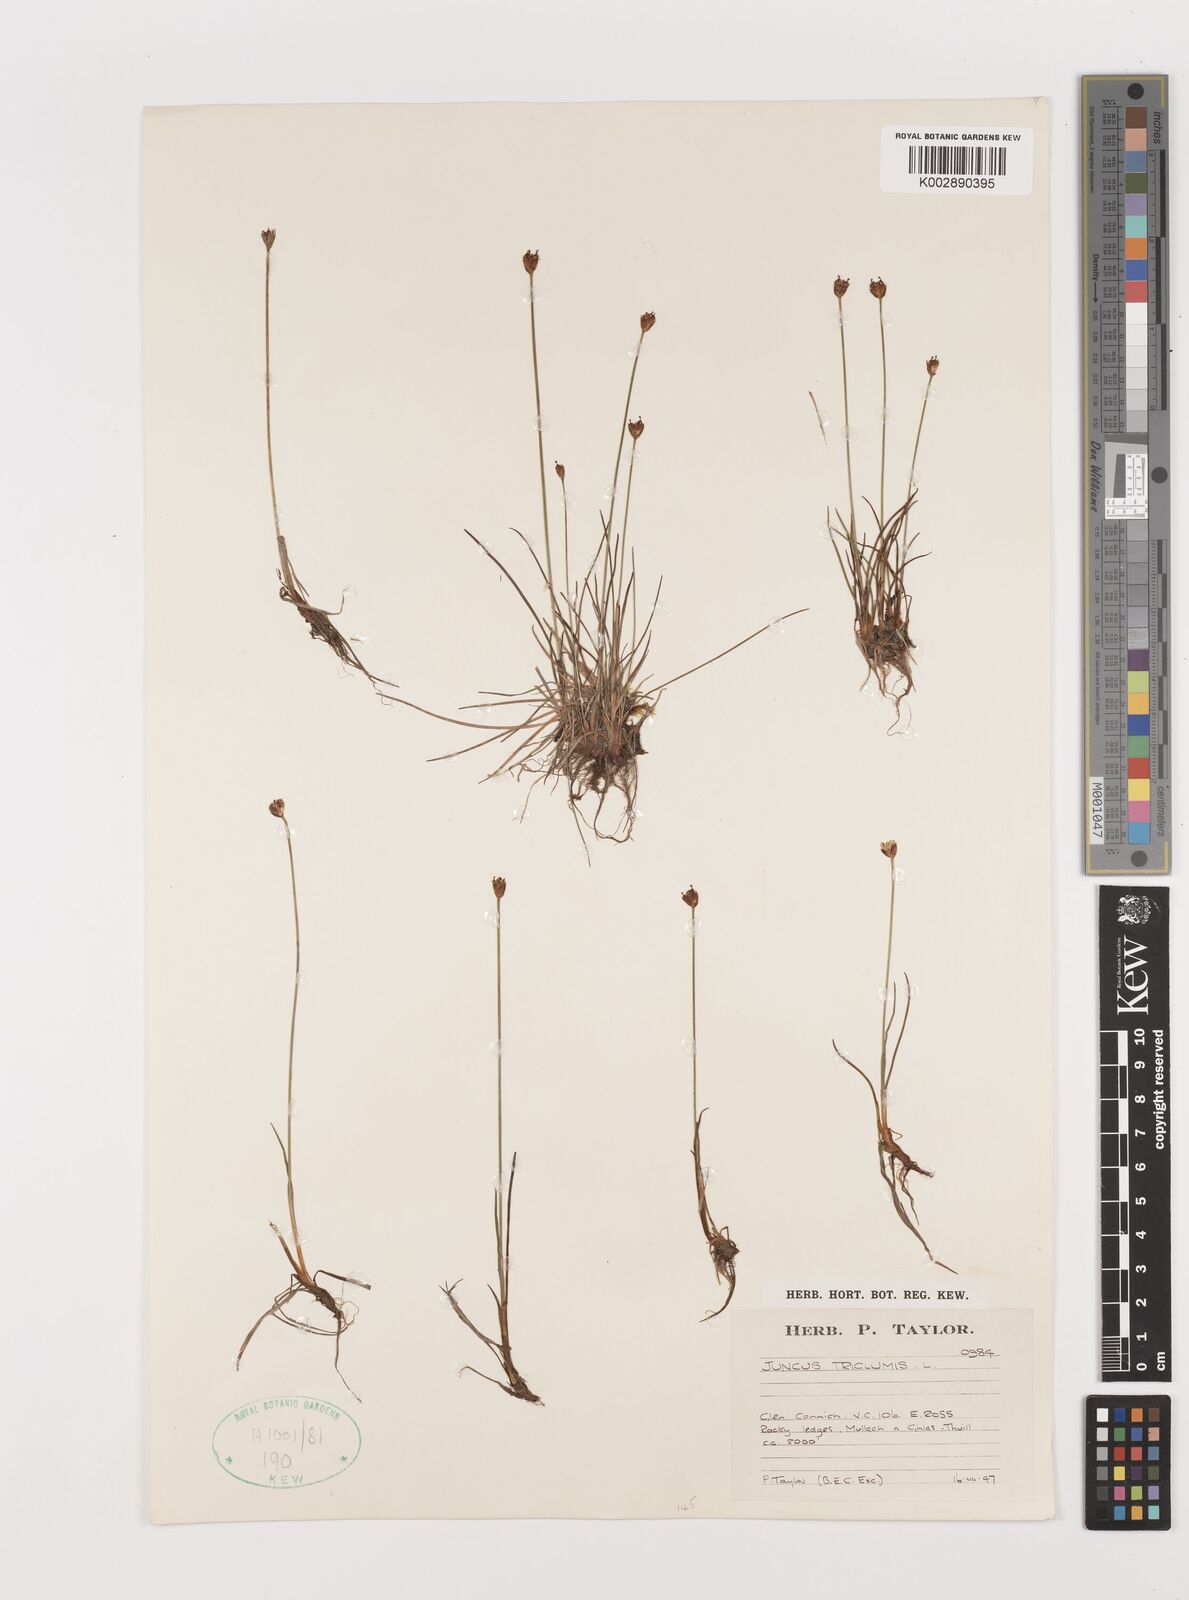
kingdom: Plantae
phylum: Tracheophyta
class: Liliopsida
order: Poales
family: Juncaceae
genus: Juncus
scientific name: Juncus triglumis
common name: Three-flowered rush
